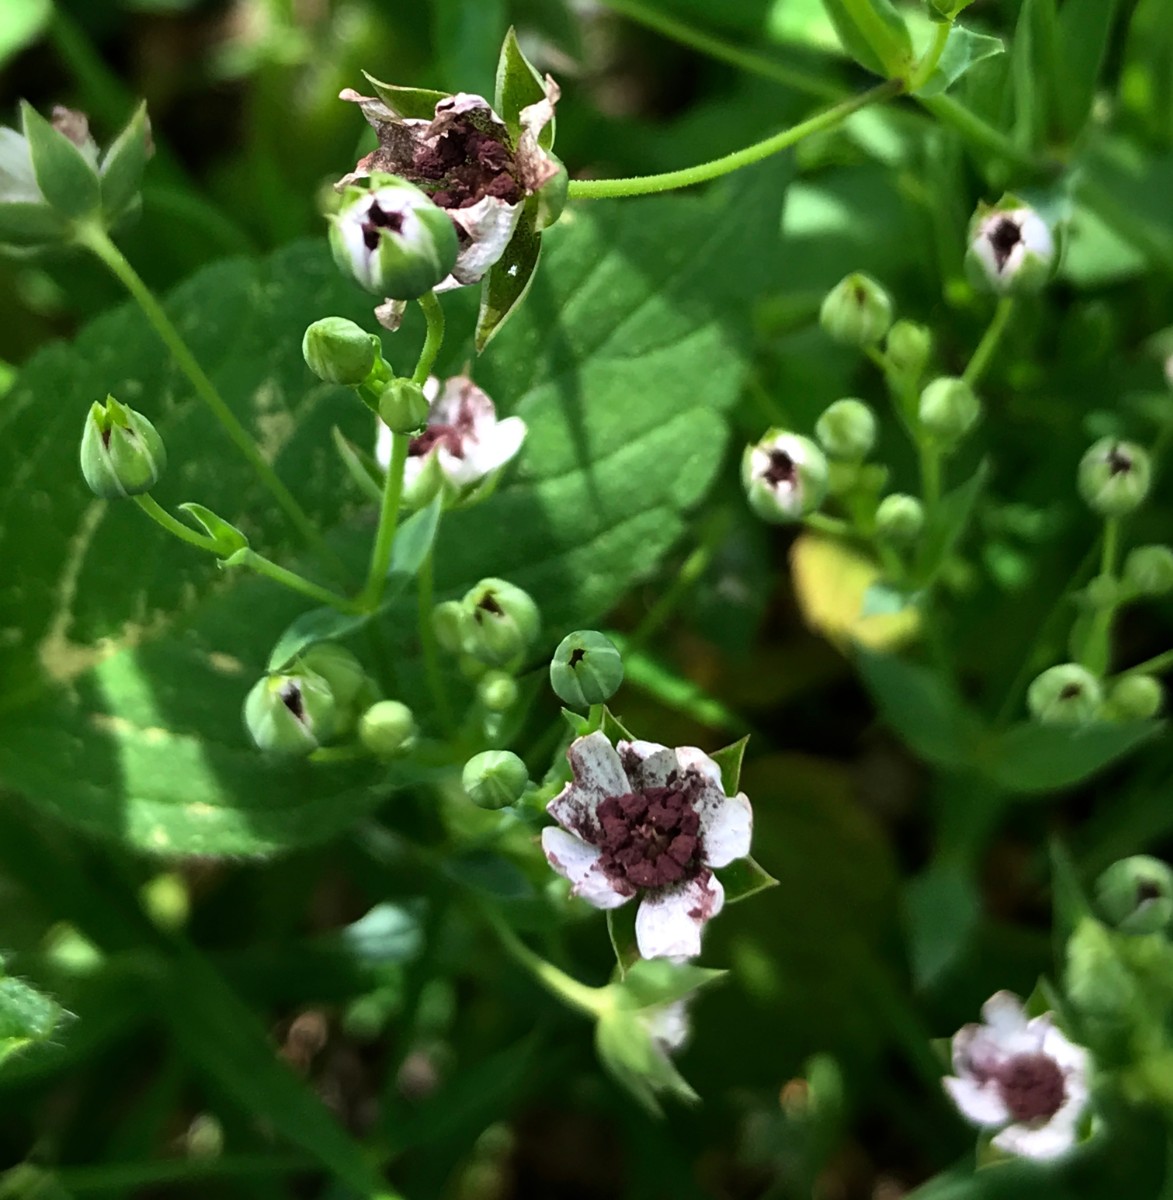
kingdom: Fungi
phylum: Basidiomycota
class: Microbotryomycetes
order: Microbotryales
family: Microbotryaceae
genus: Microbotryum
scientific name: Microbotryum stellariae
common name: fladstjerne-støvbladrust
